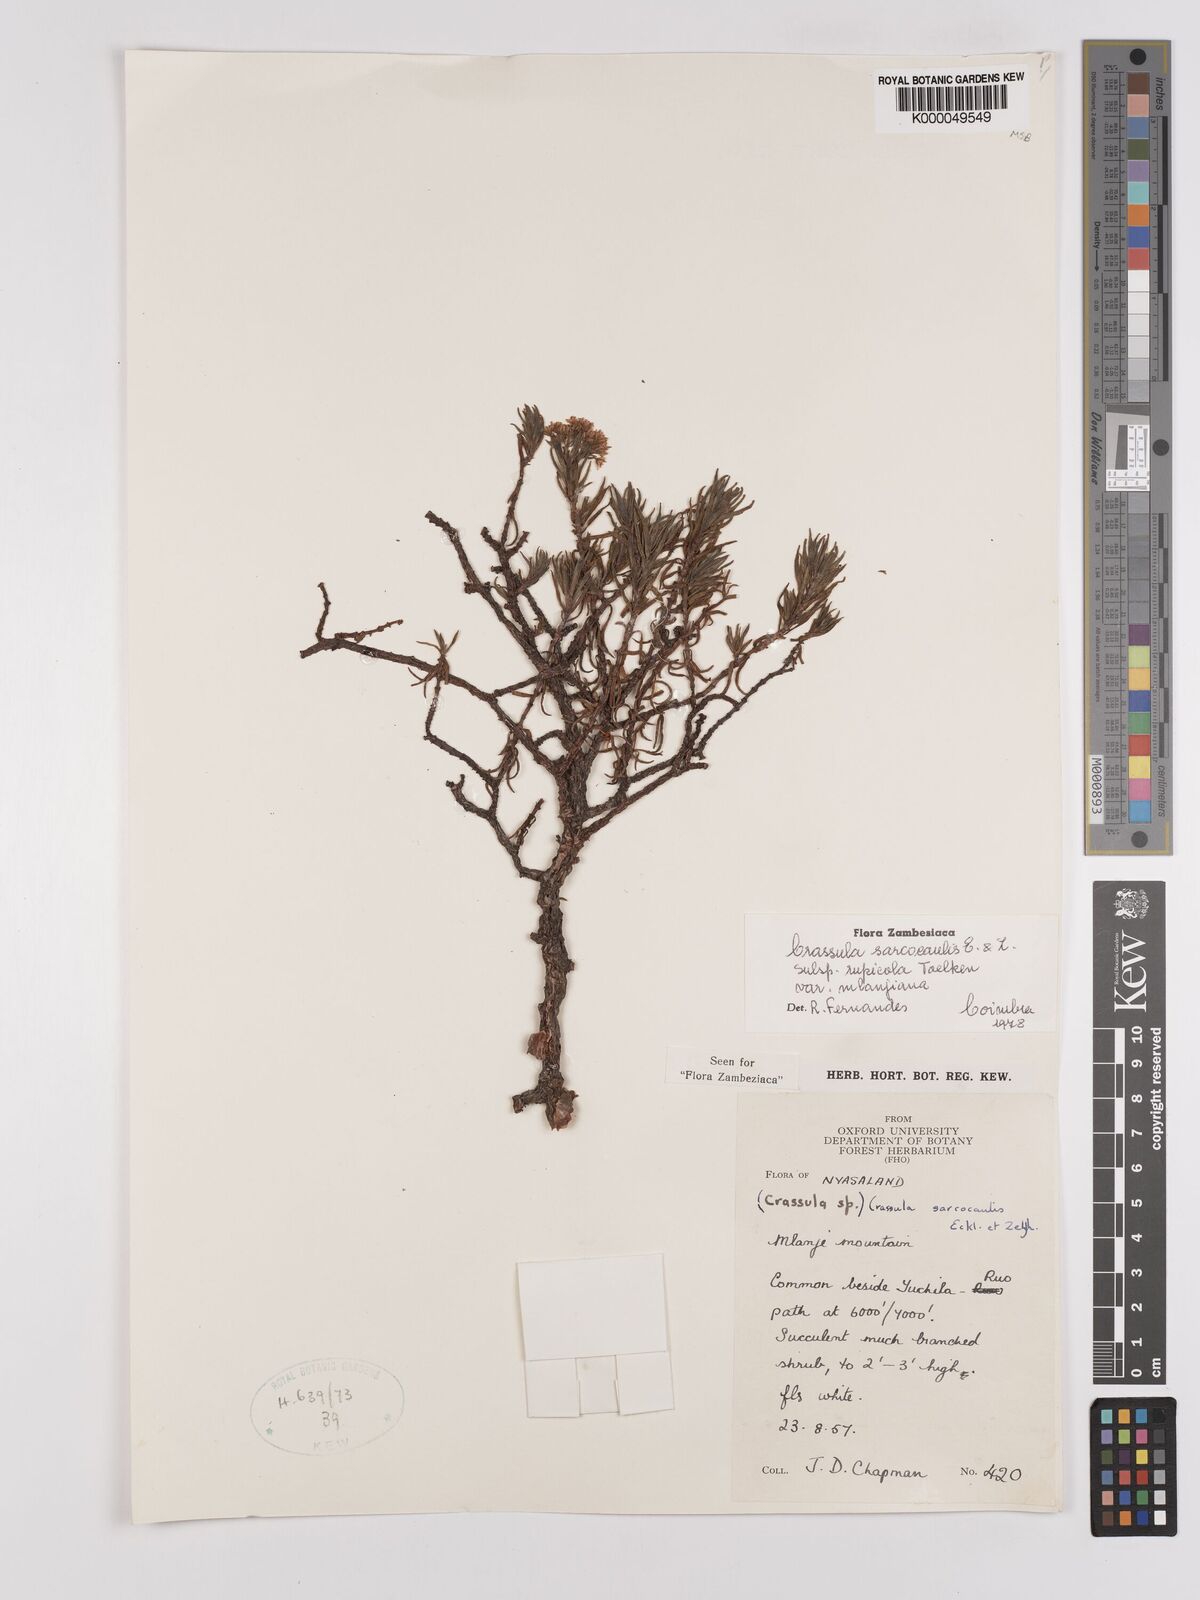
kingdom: Plantae
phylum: Tracheophyta
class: Magnoliopsida
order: Saxifragales
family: Crassulaceae
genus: Crassula
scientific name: Crassula sarcocaulis
